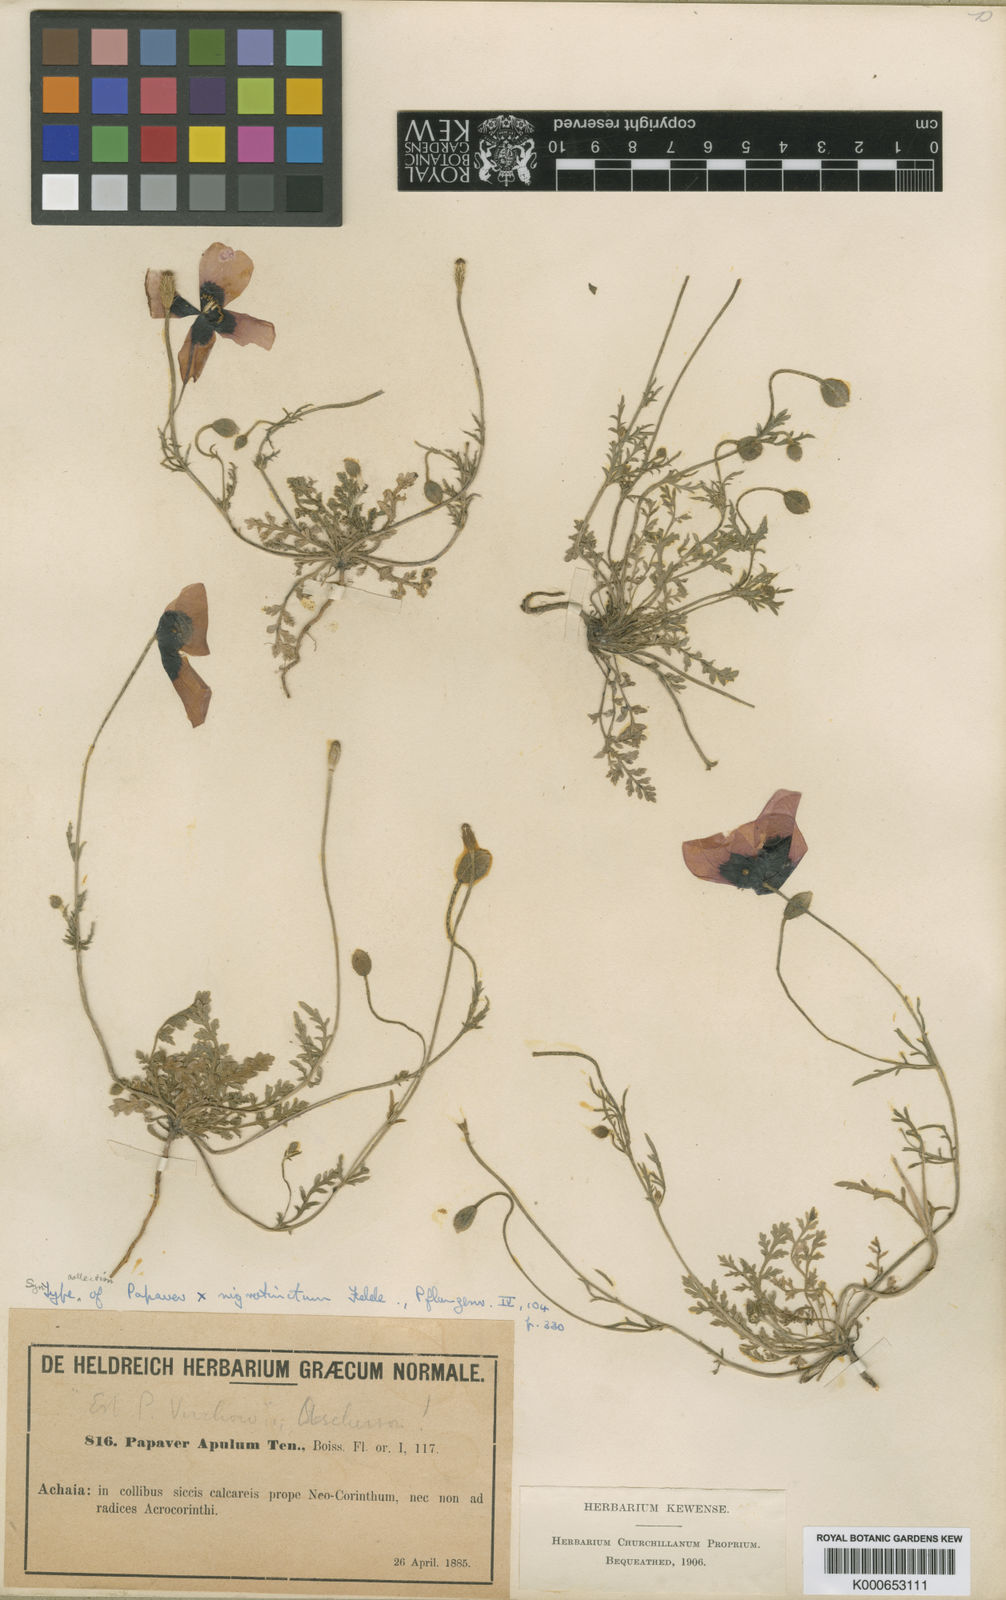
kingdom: Plantae
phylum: Tracheophyta
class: Magnoliopsida
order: Ranunculales
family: Papaveraceae
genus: Roemeria
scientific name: Roemeria nigrotincta
